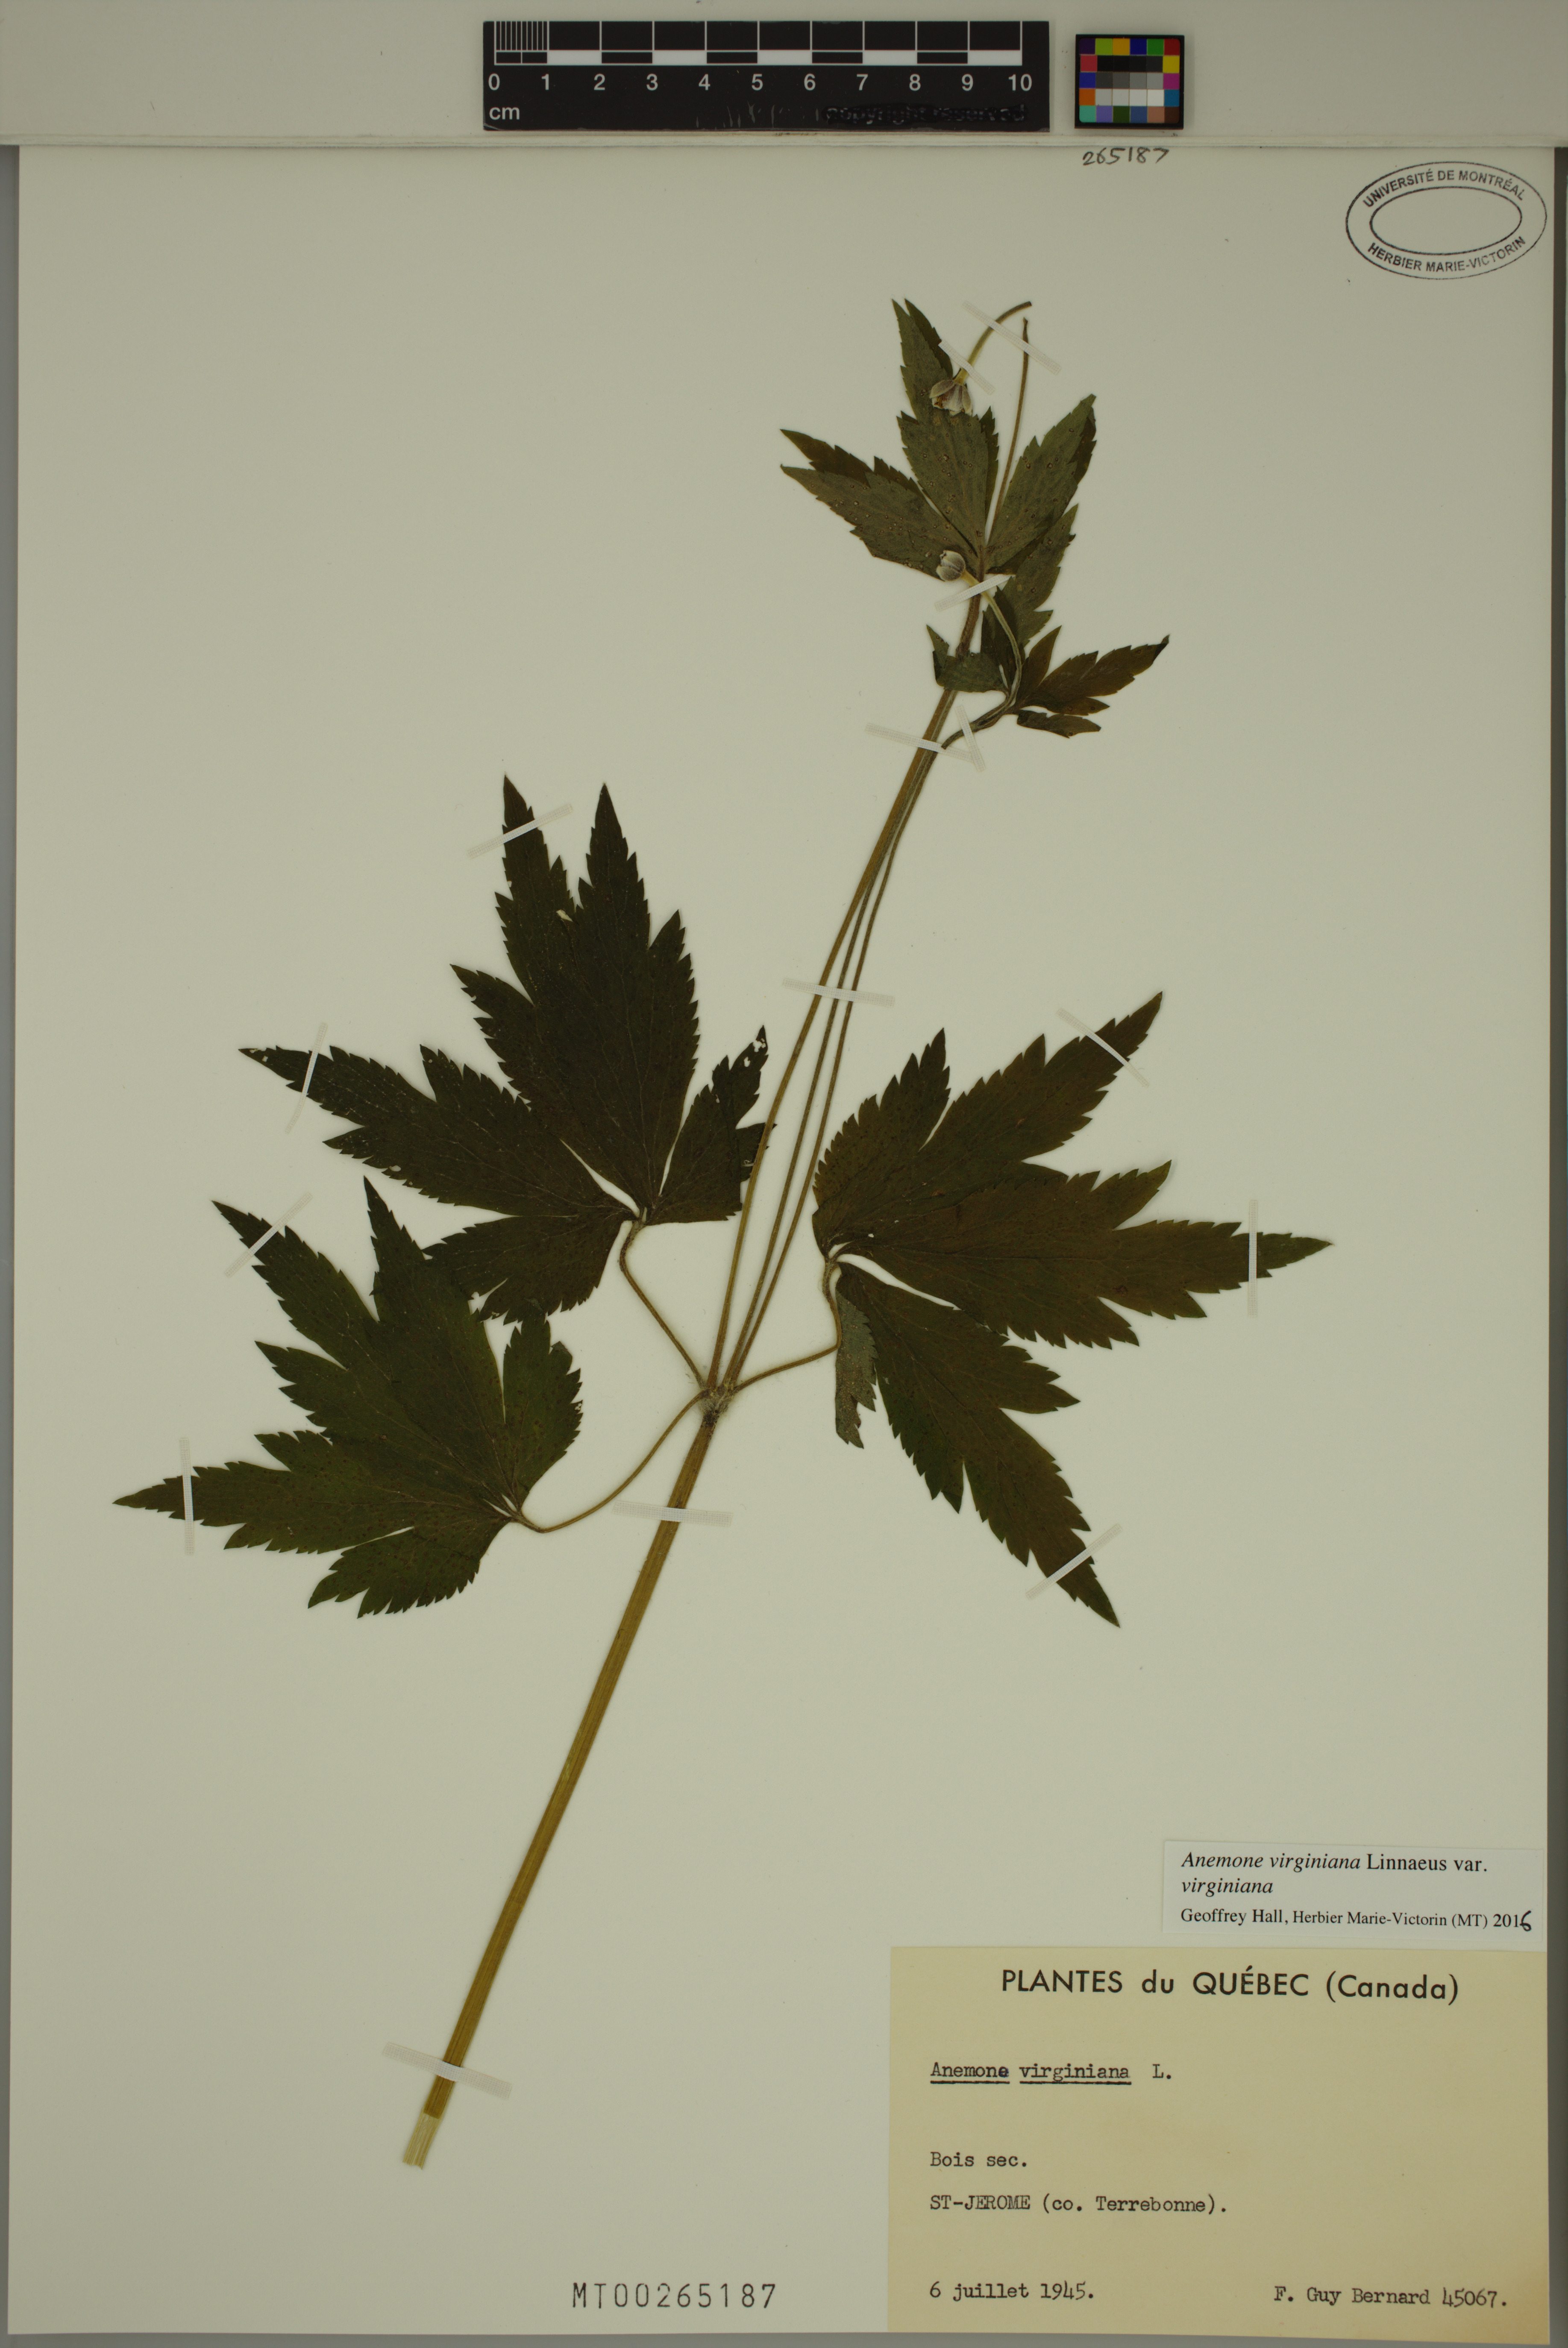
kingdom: Plantae
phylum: Tracheophyta
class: Magnoliopsida
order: Ranunculales
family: Ranunculaceae
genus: Anemone
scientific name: Anemone virginiana
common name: Tall anemone
